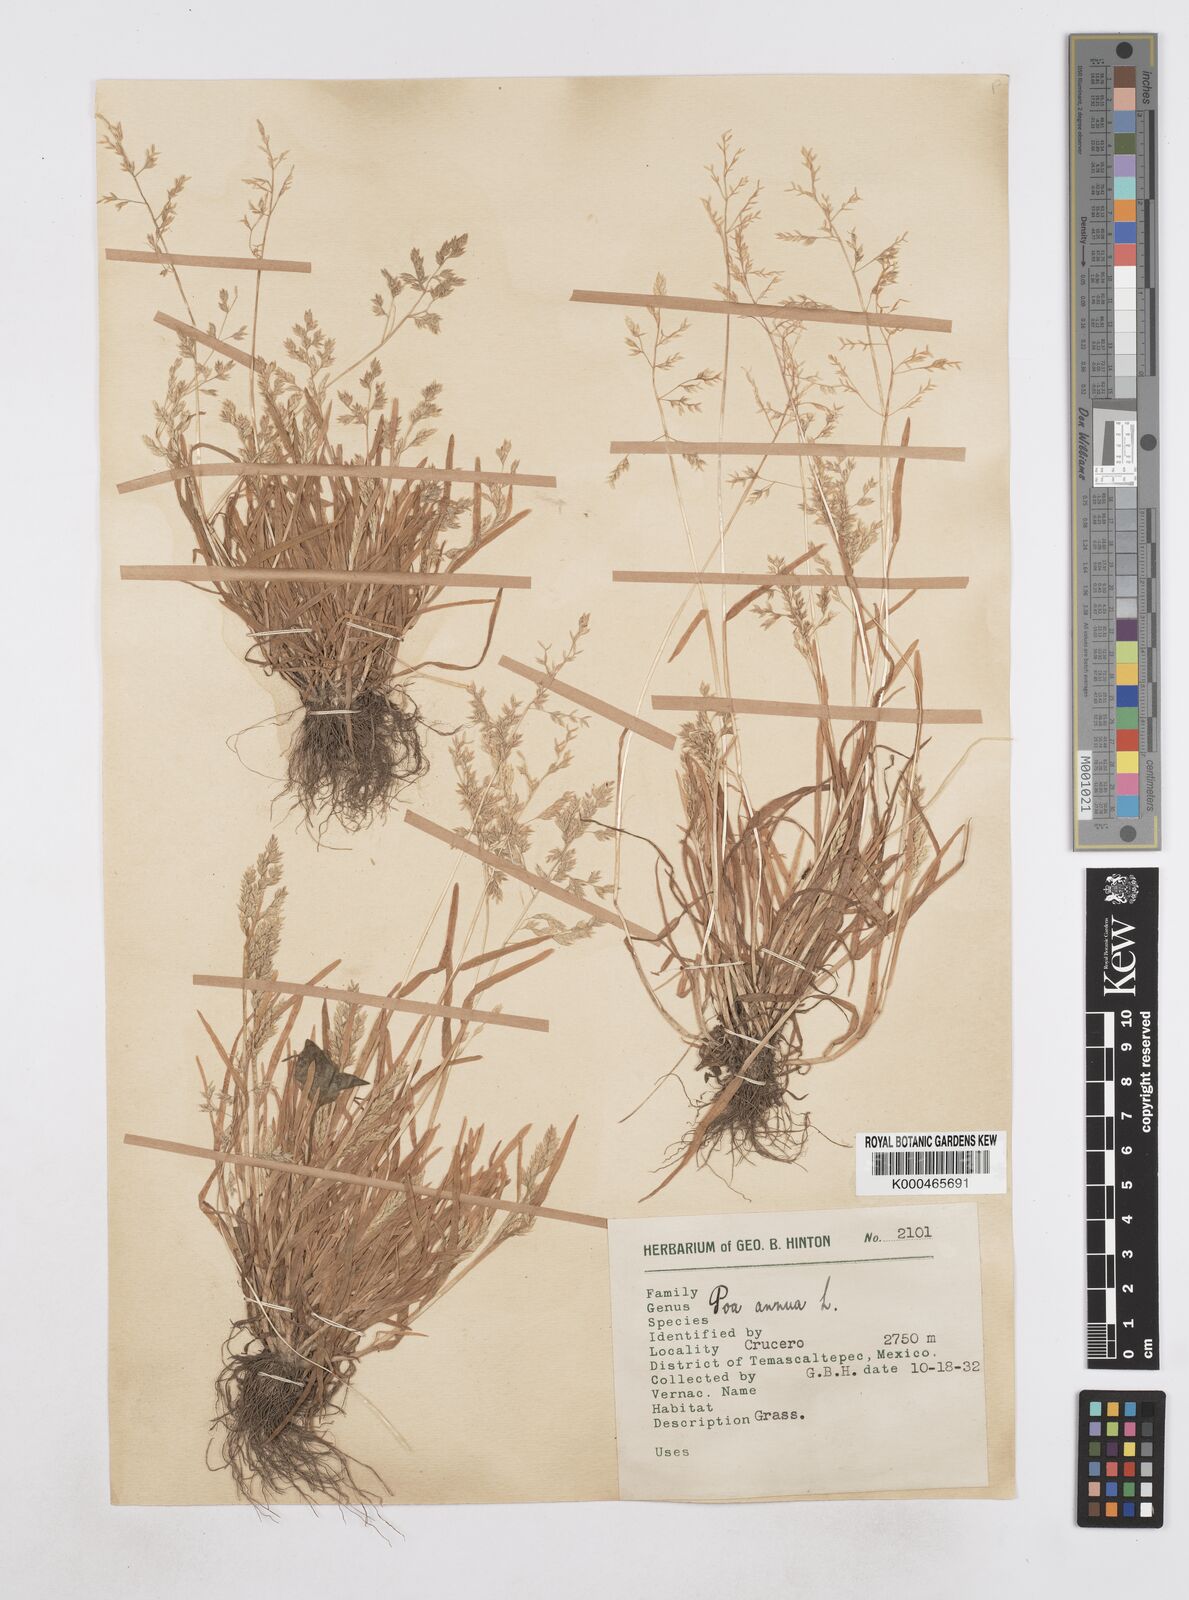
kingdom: Plantae
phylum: Tracheophyta
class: Liliopsida
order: Poales
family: Poaceae
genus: Poa
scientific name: Poa annua
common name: Annual bluegrass
